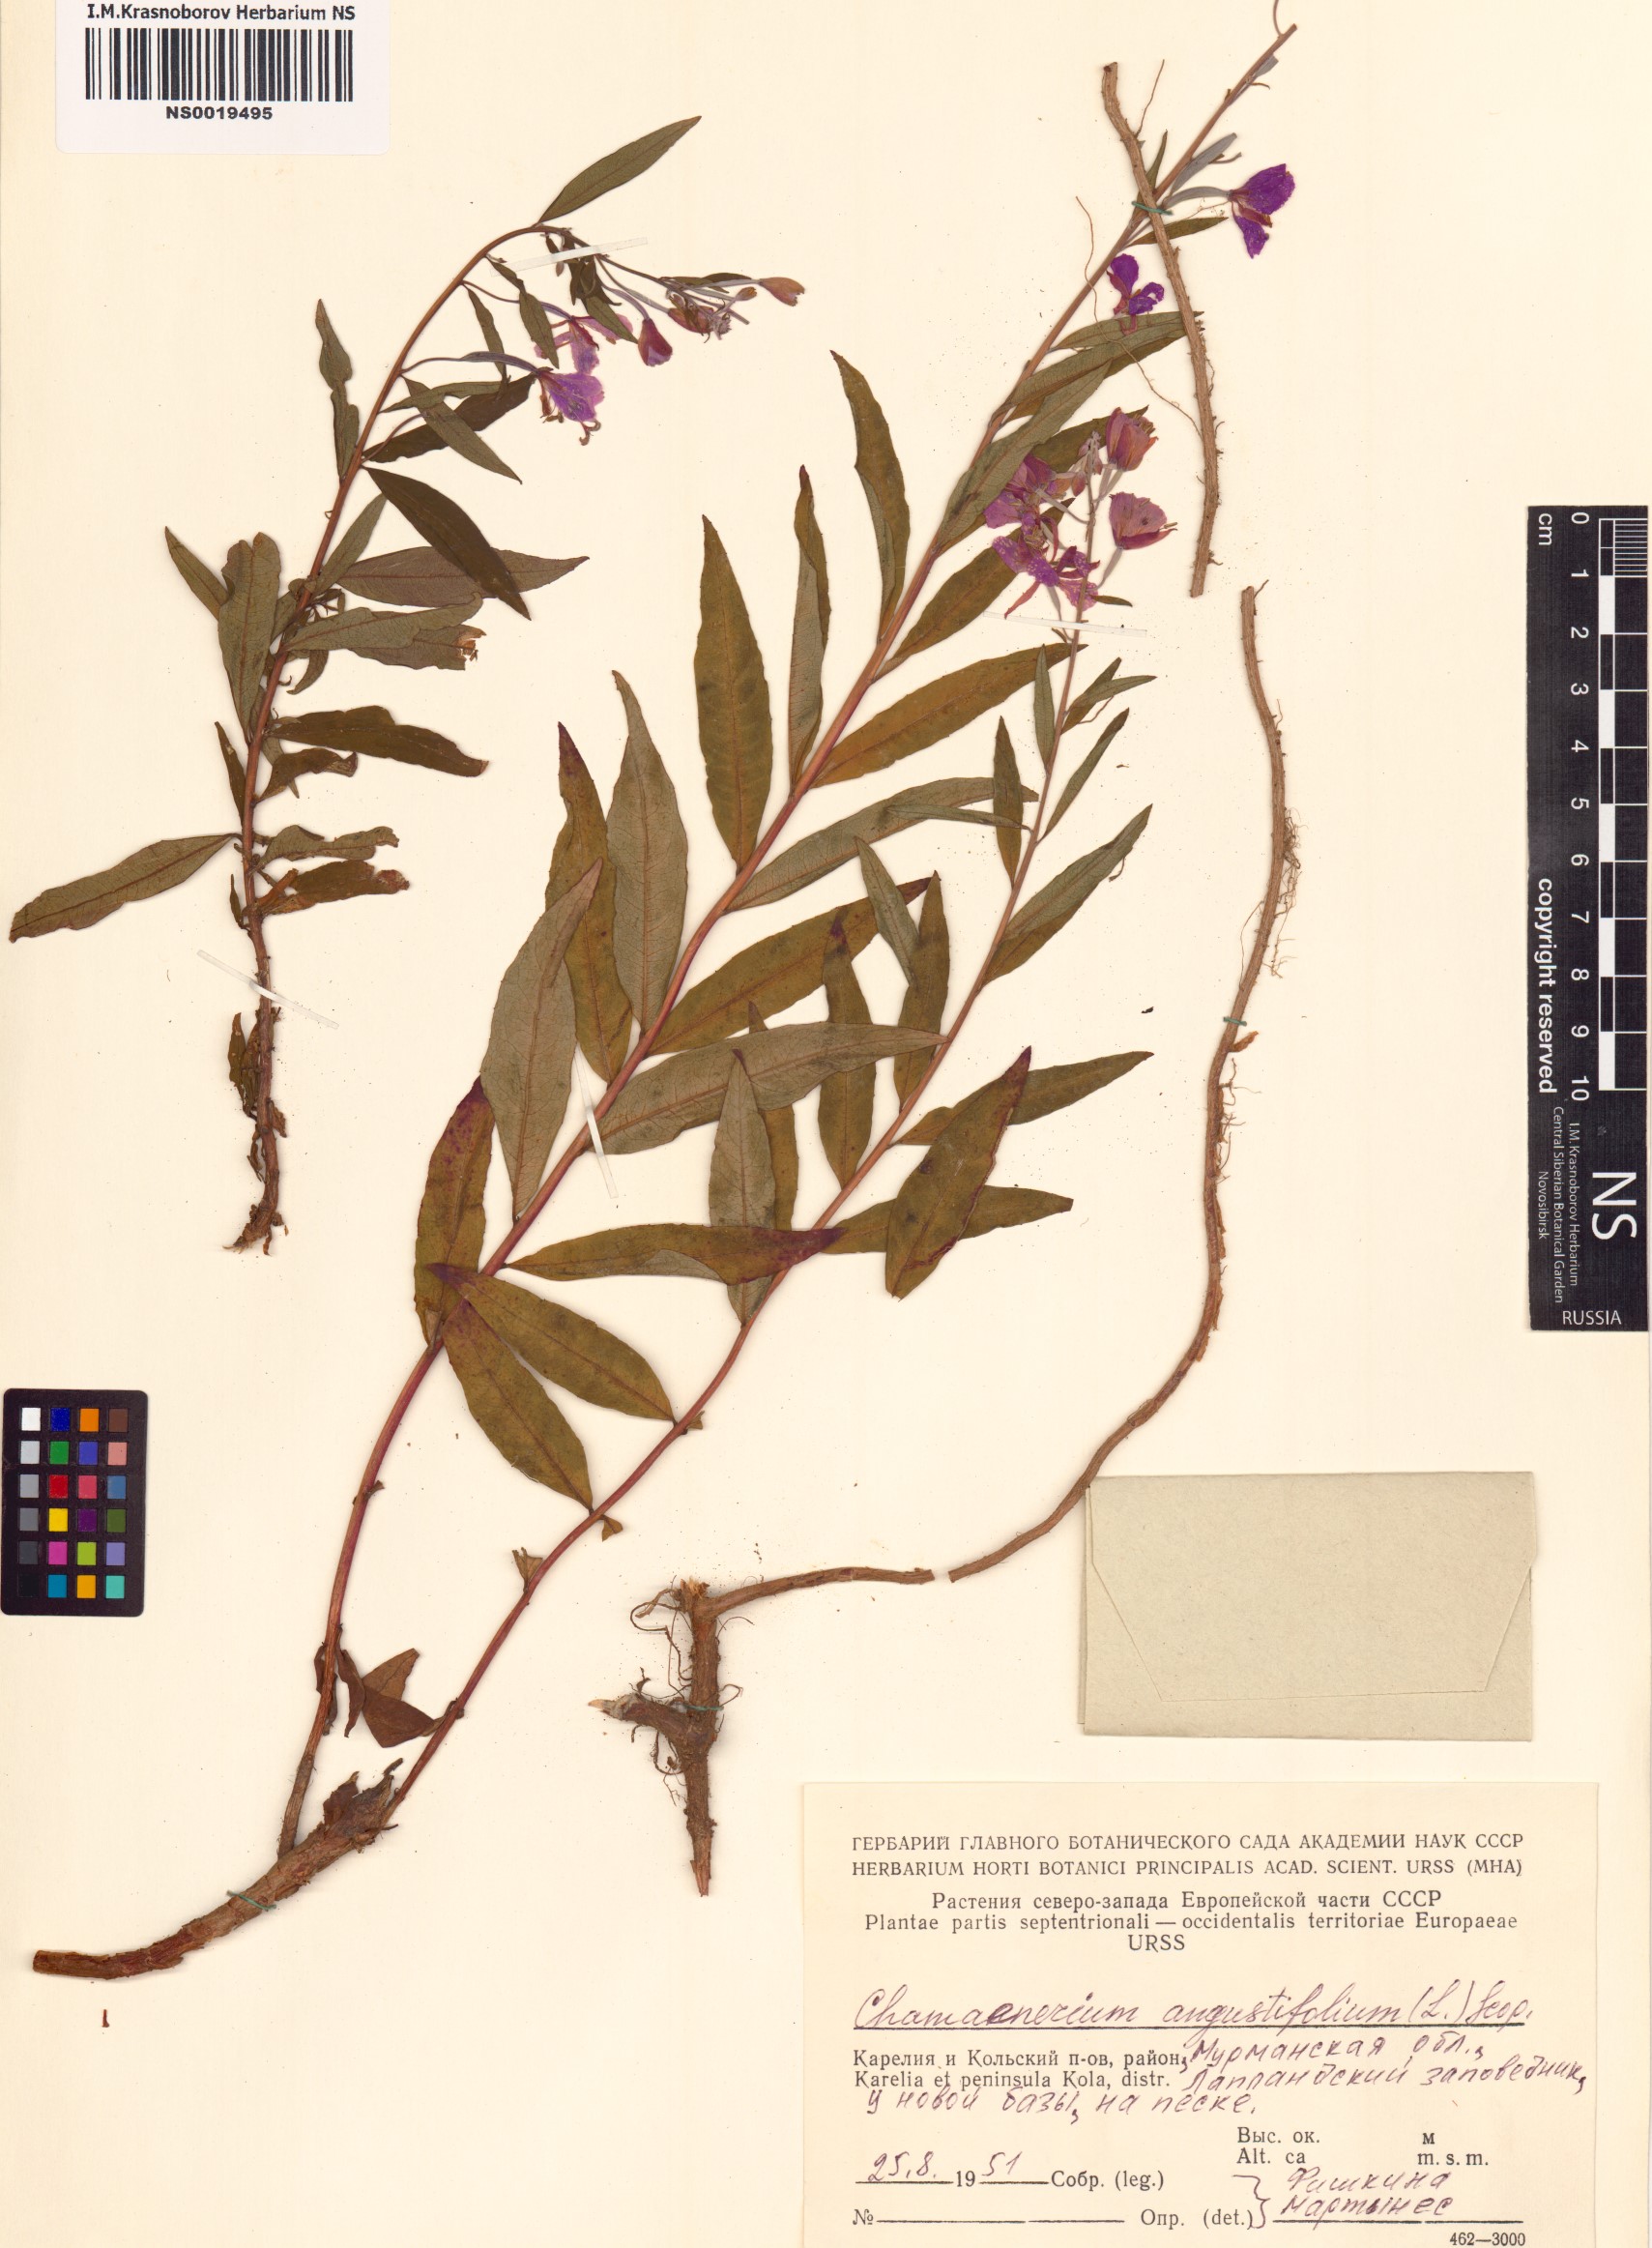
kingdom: Plantae
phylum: Tracheophyta
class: Magnoliopsida
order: Myrtales
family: Onagraceae
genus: Chamaenerion
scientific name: Chamaenerion angustifolium
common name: Fireweed
